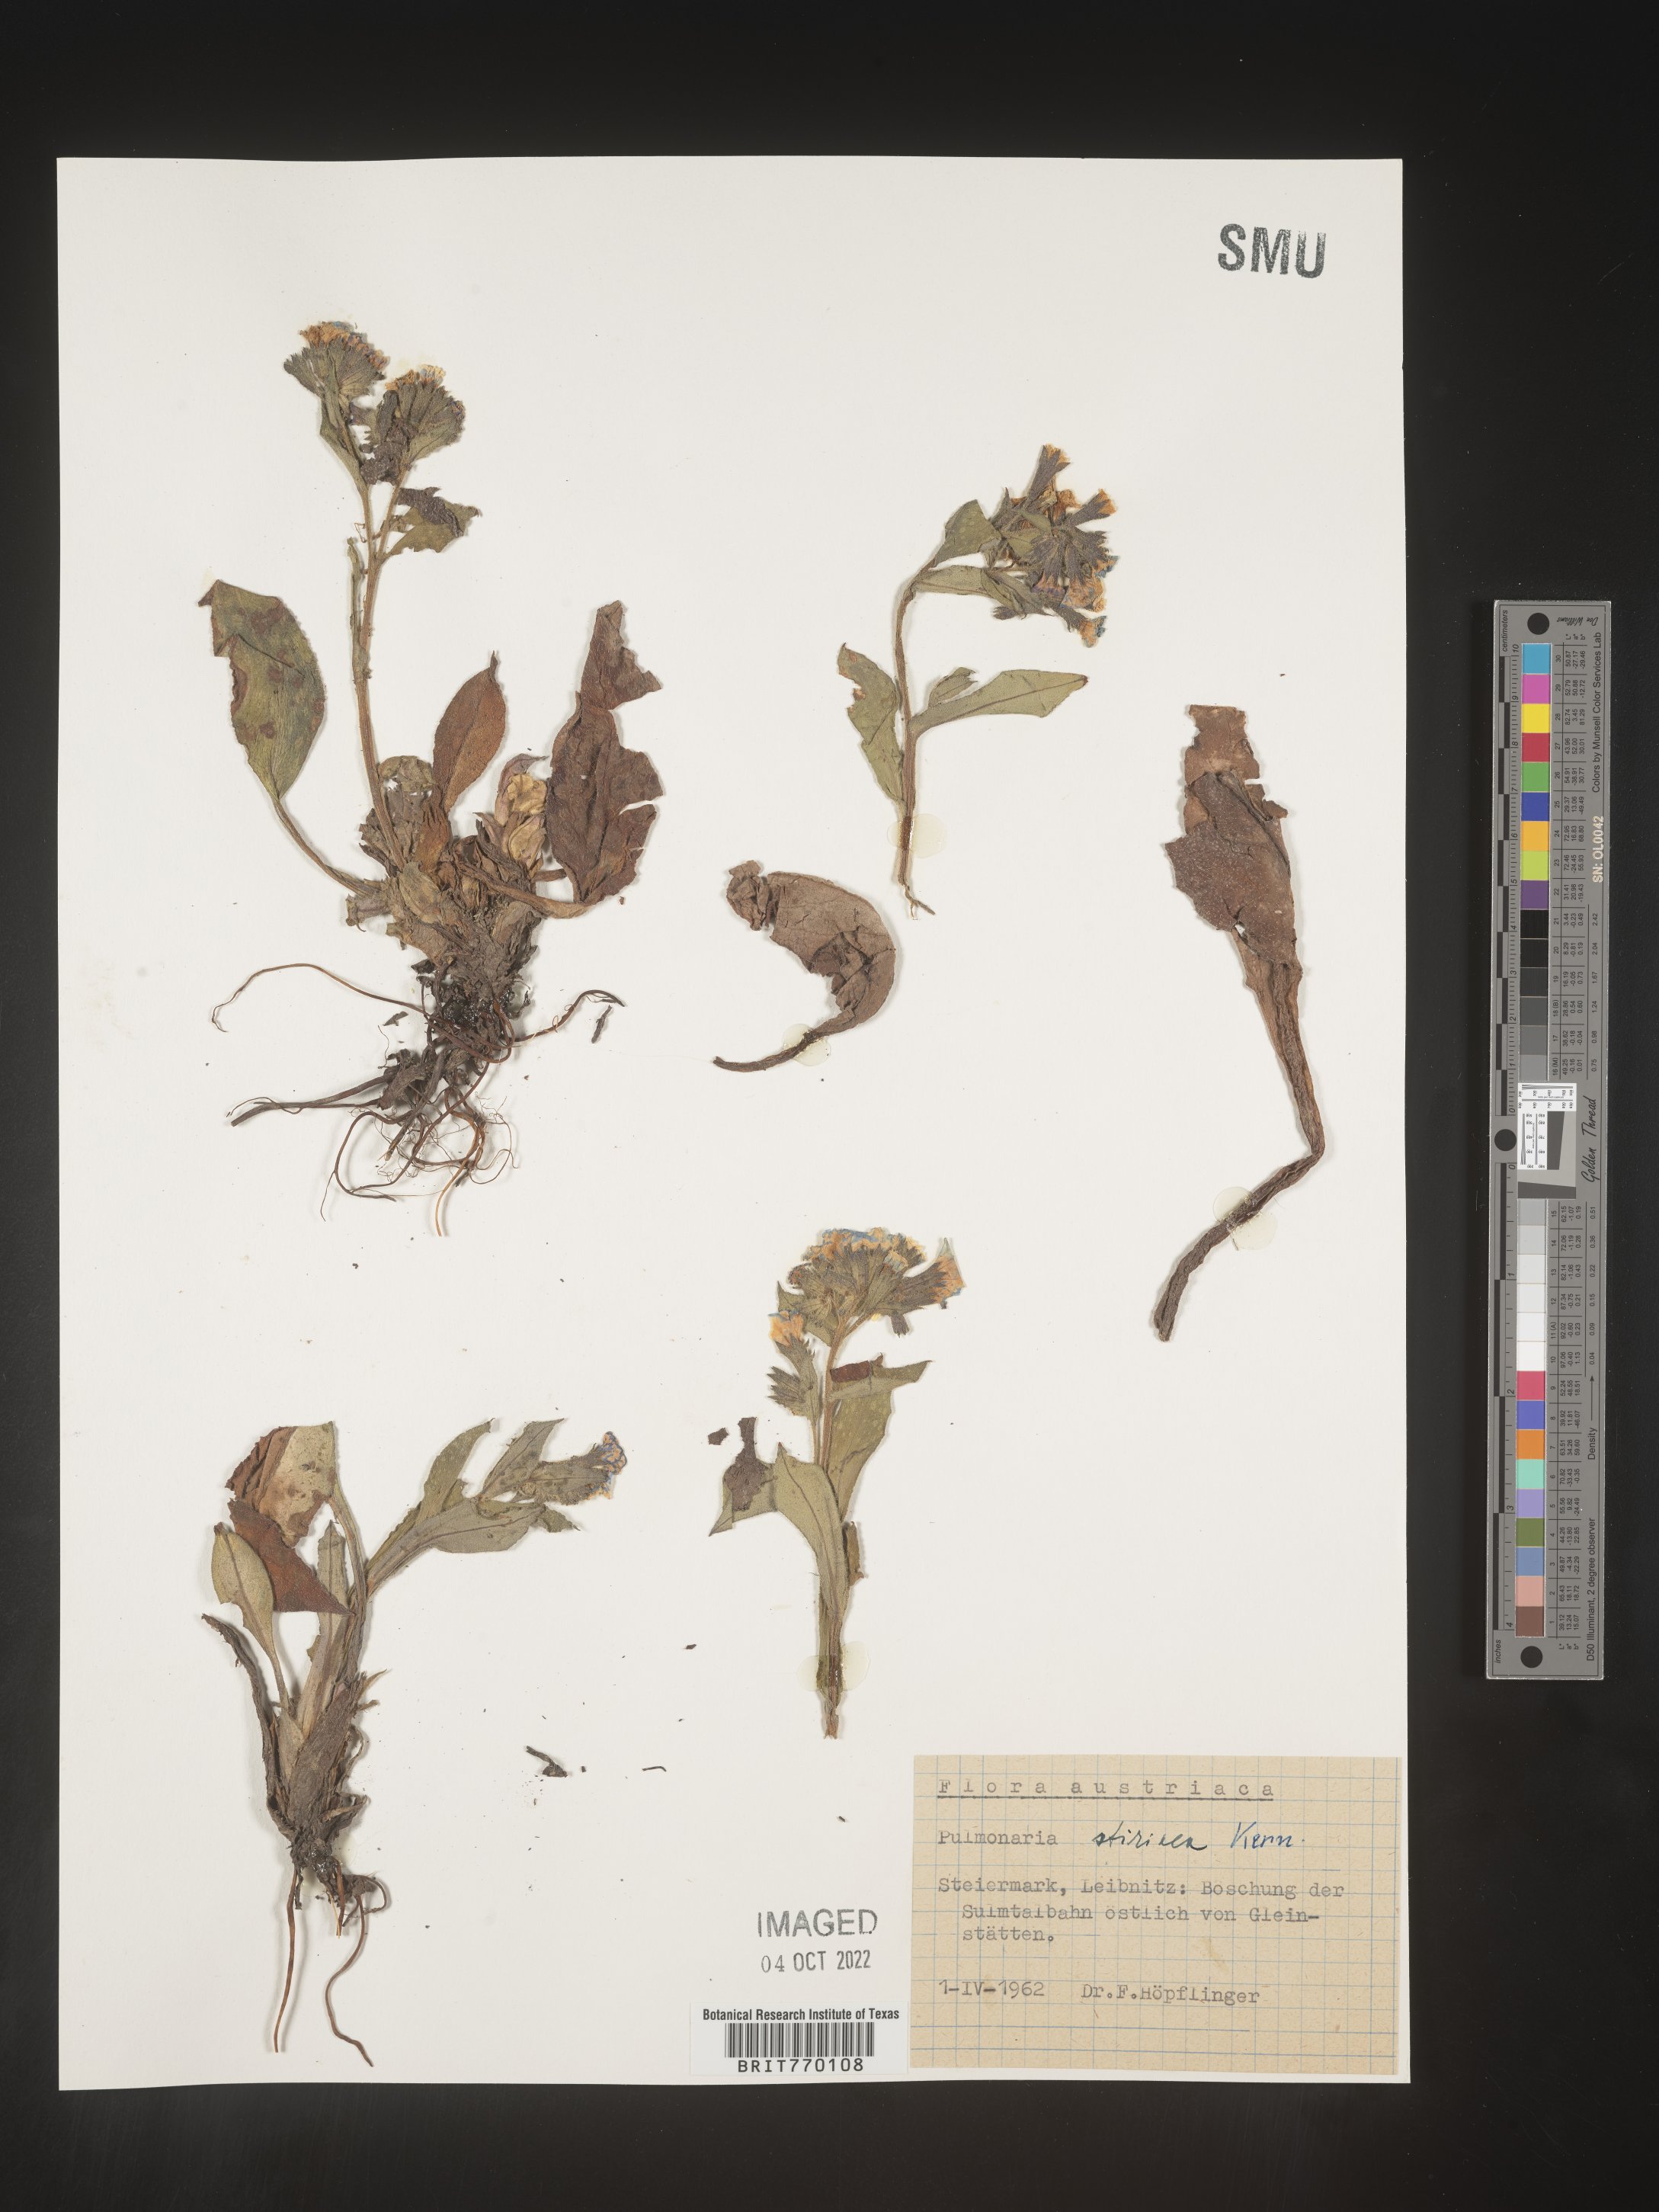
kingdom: Plantae
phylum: Tracheophyta
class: Magnoliopsida
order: Boraginales
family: Boraginaceae
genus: Pulmonaria
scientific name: Pulmonaria
